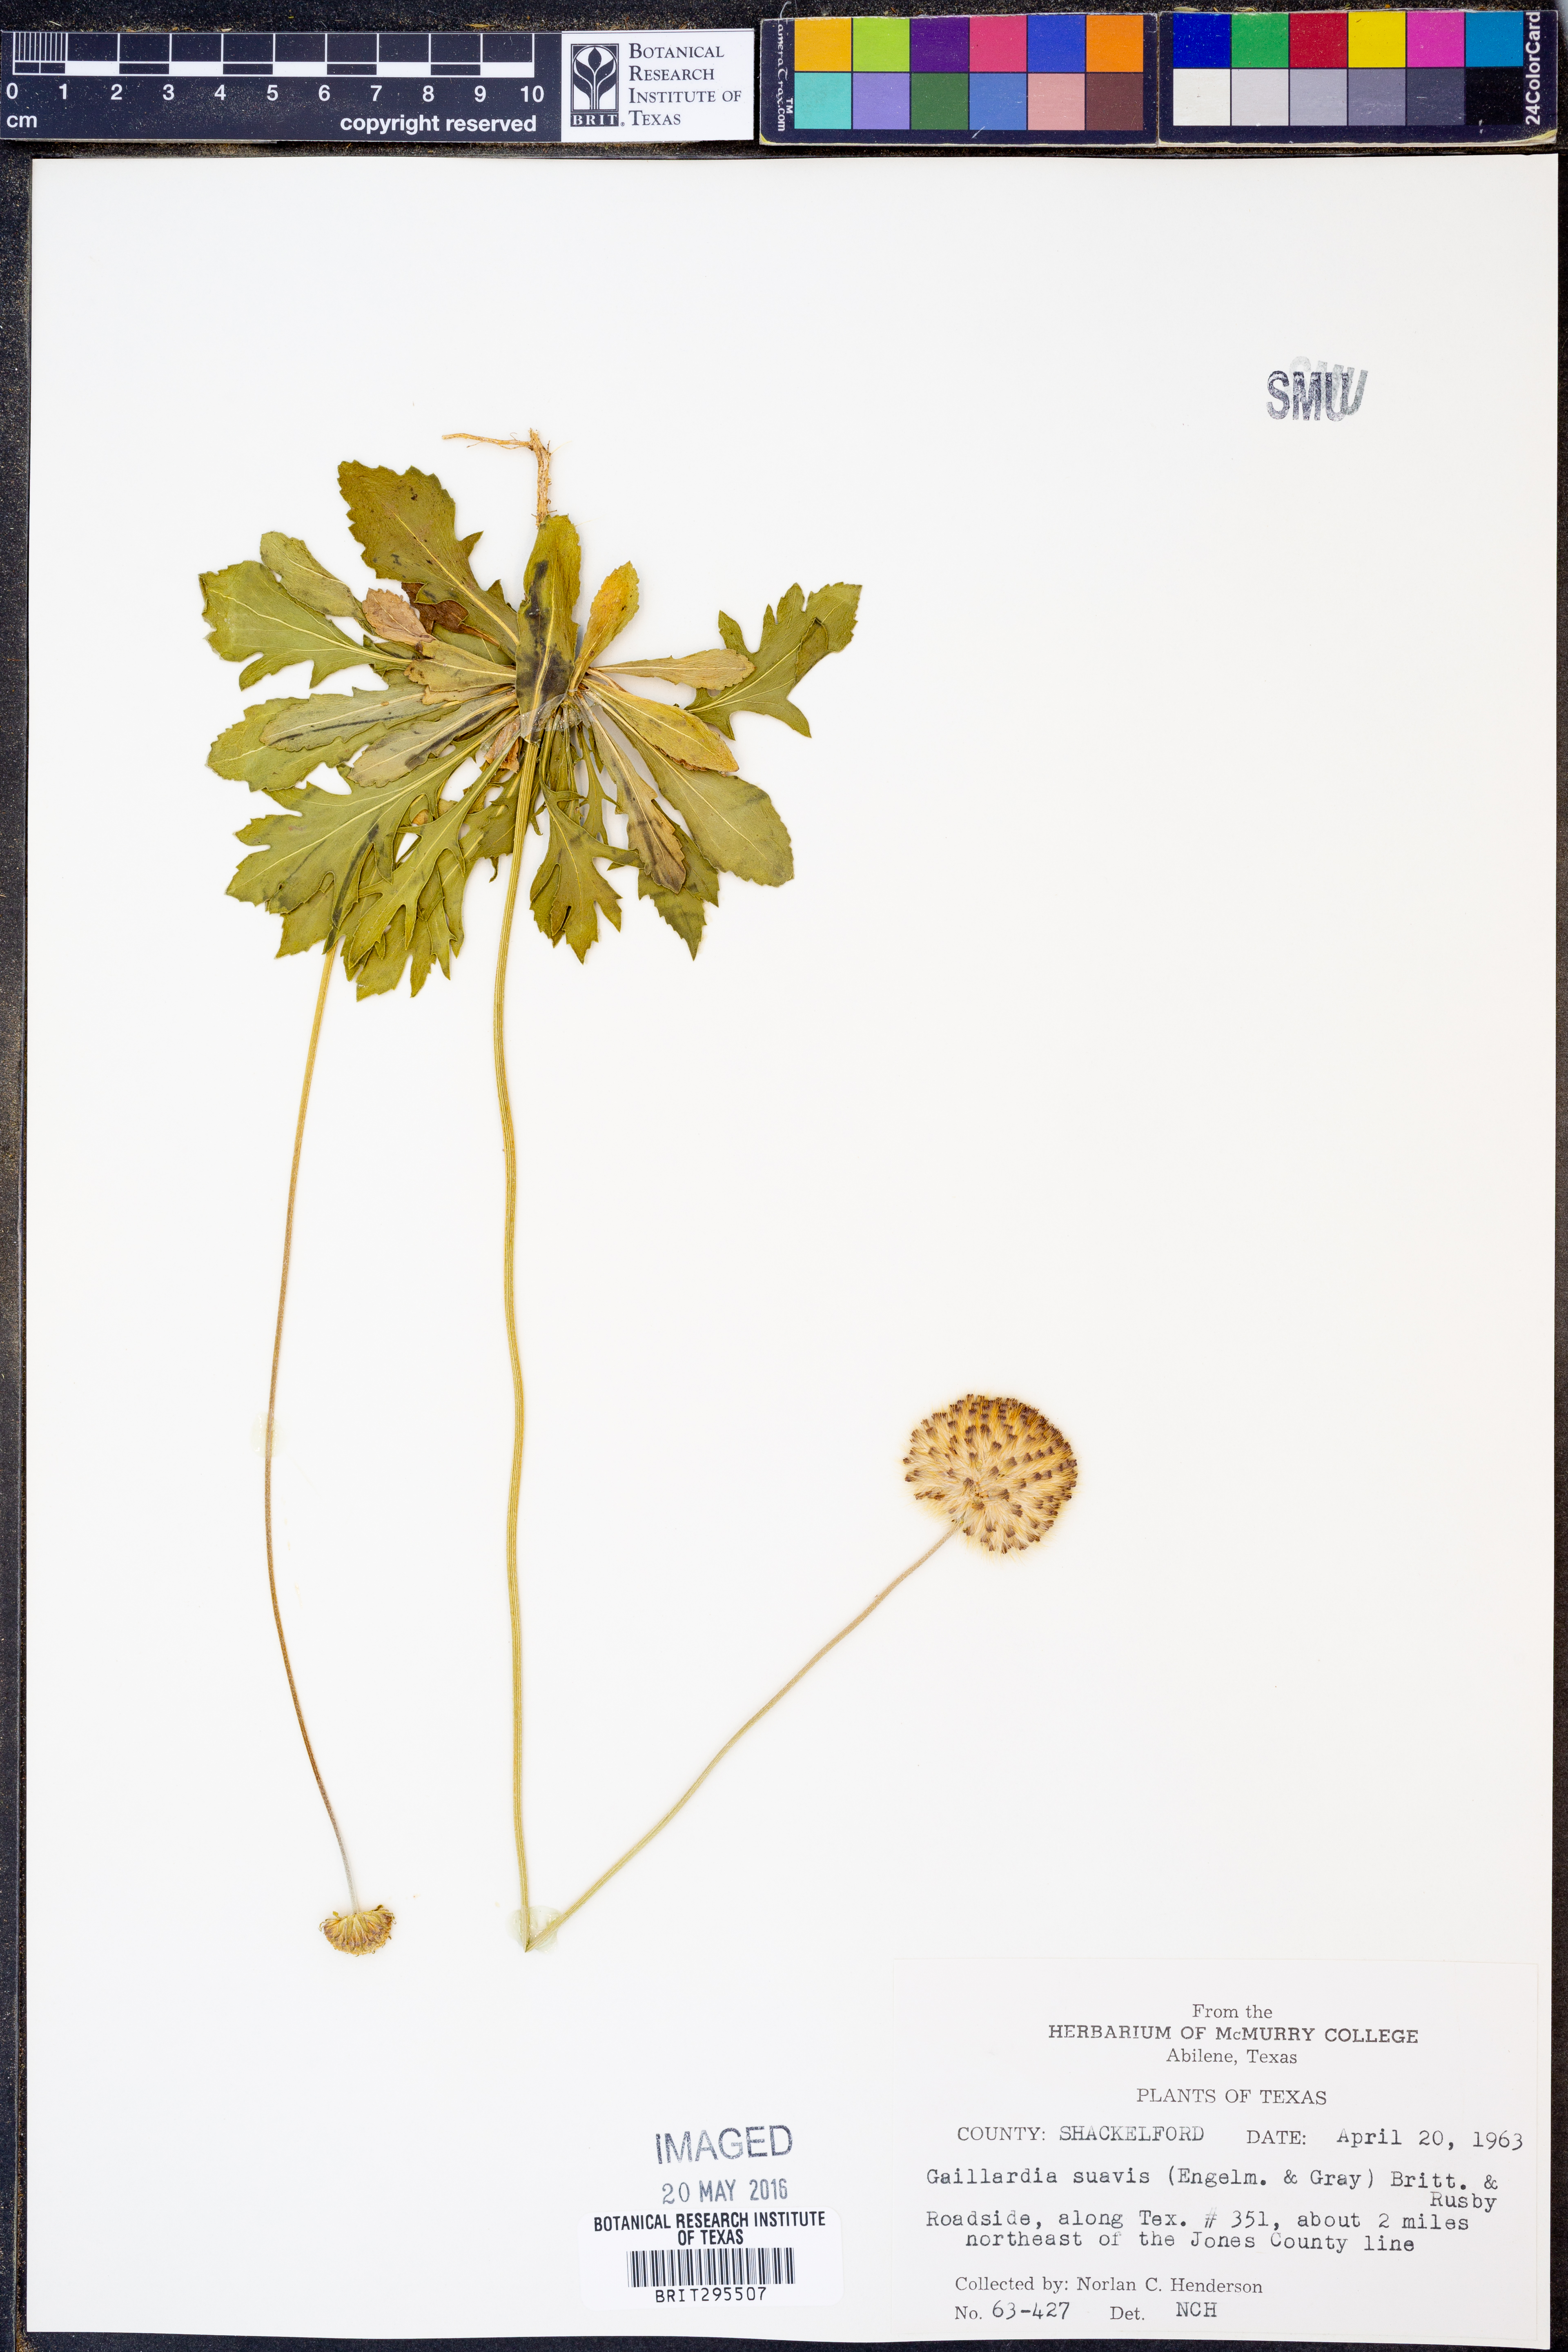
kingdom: Plantae
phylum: Tracheophyta
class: Magnoliopsida
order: Asterales
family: Asteraceae
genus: Gaillardia
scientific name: Gaillardia suavis
